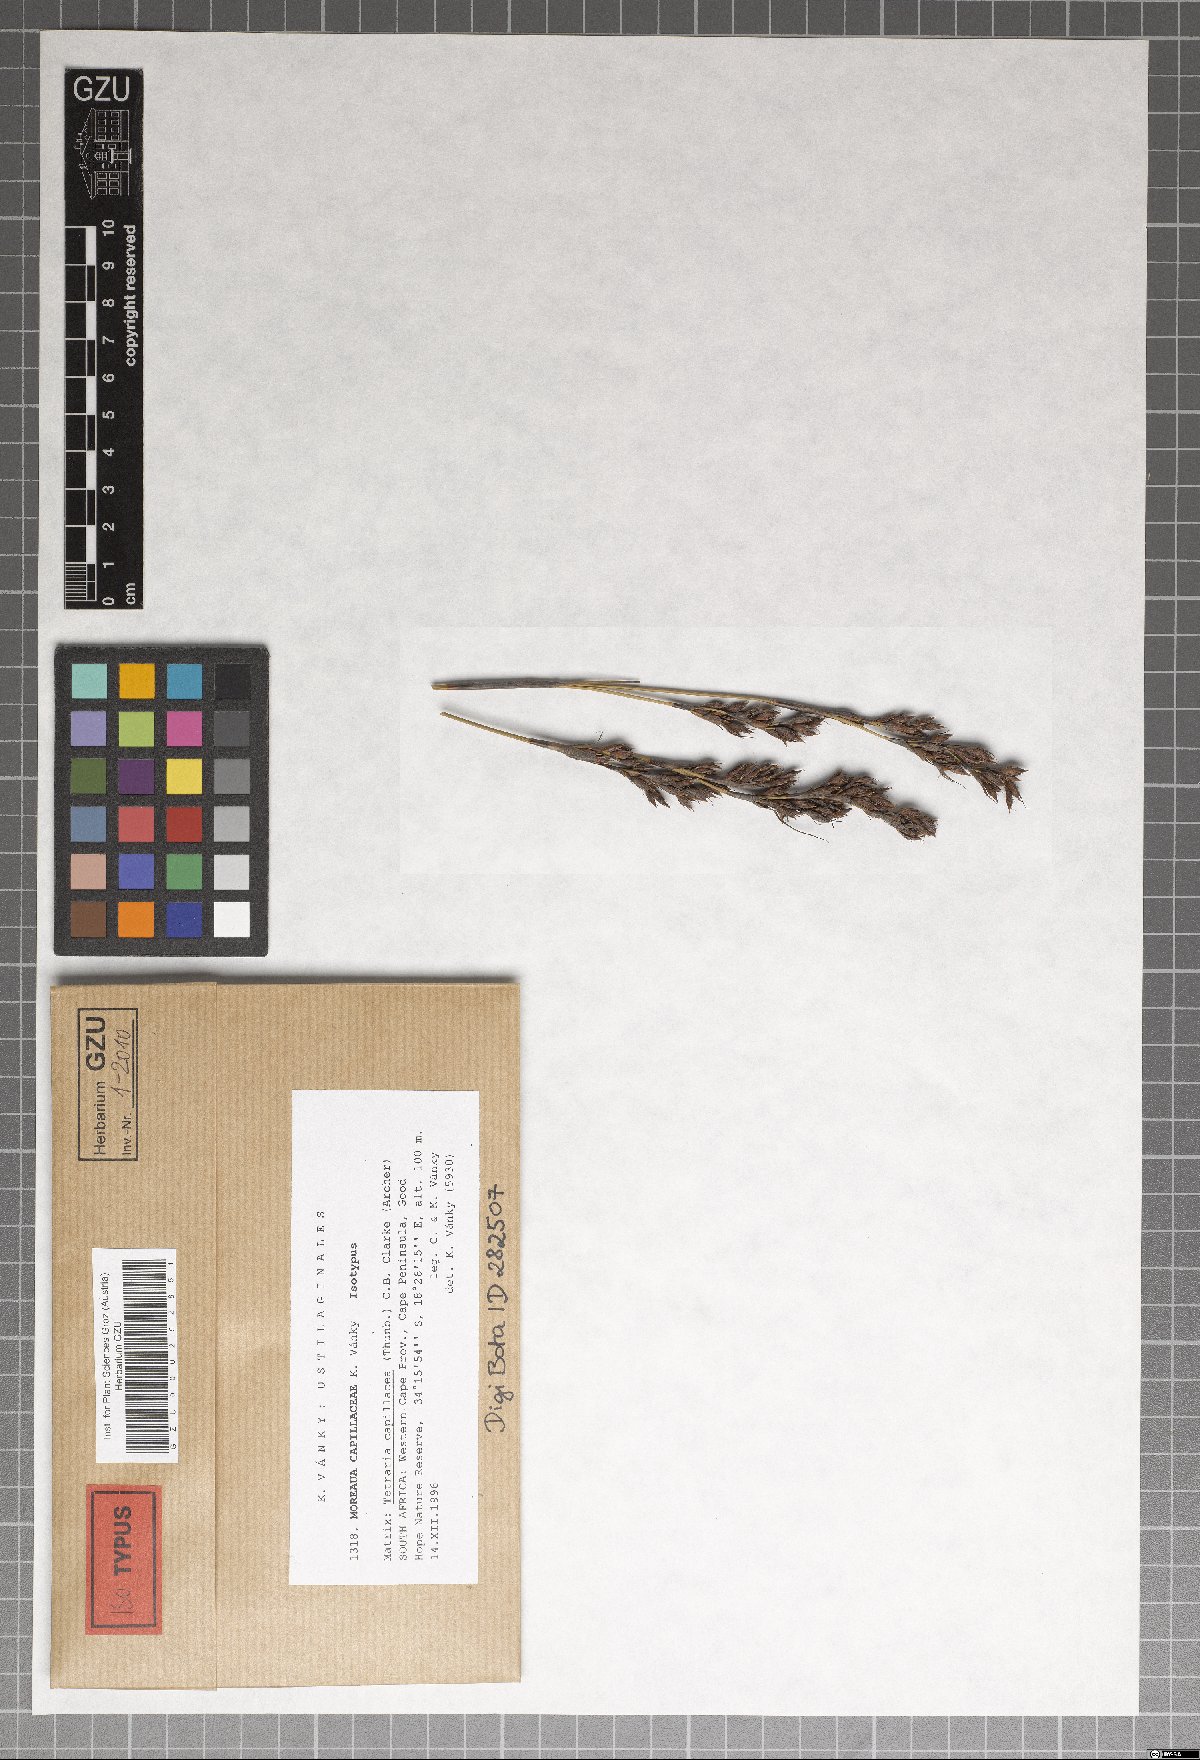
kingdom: Fungi
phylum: Basidiomycota
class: Ustilaginomycetes
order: Ustilaginales
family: Anthracoideaceae
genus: Moreaua
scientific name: Moreaua capillaceae
